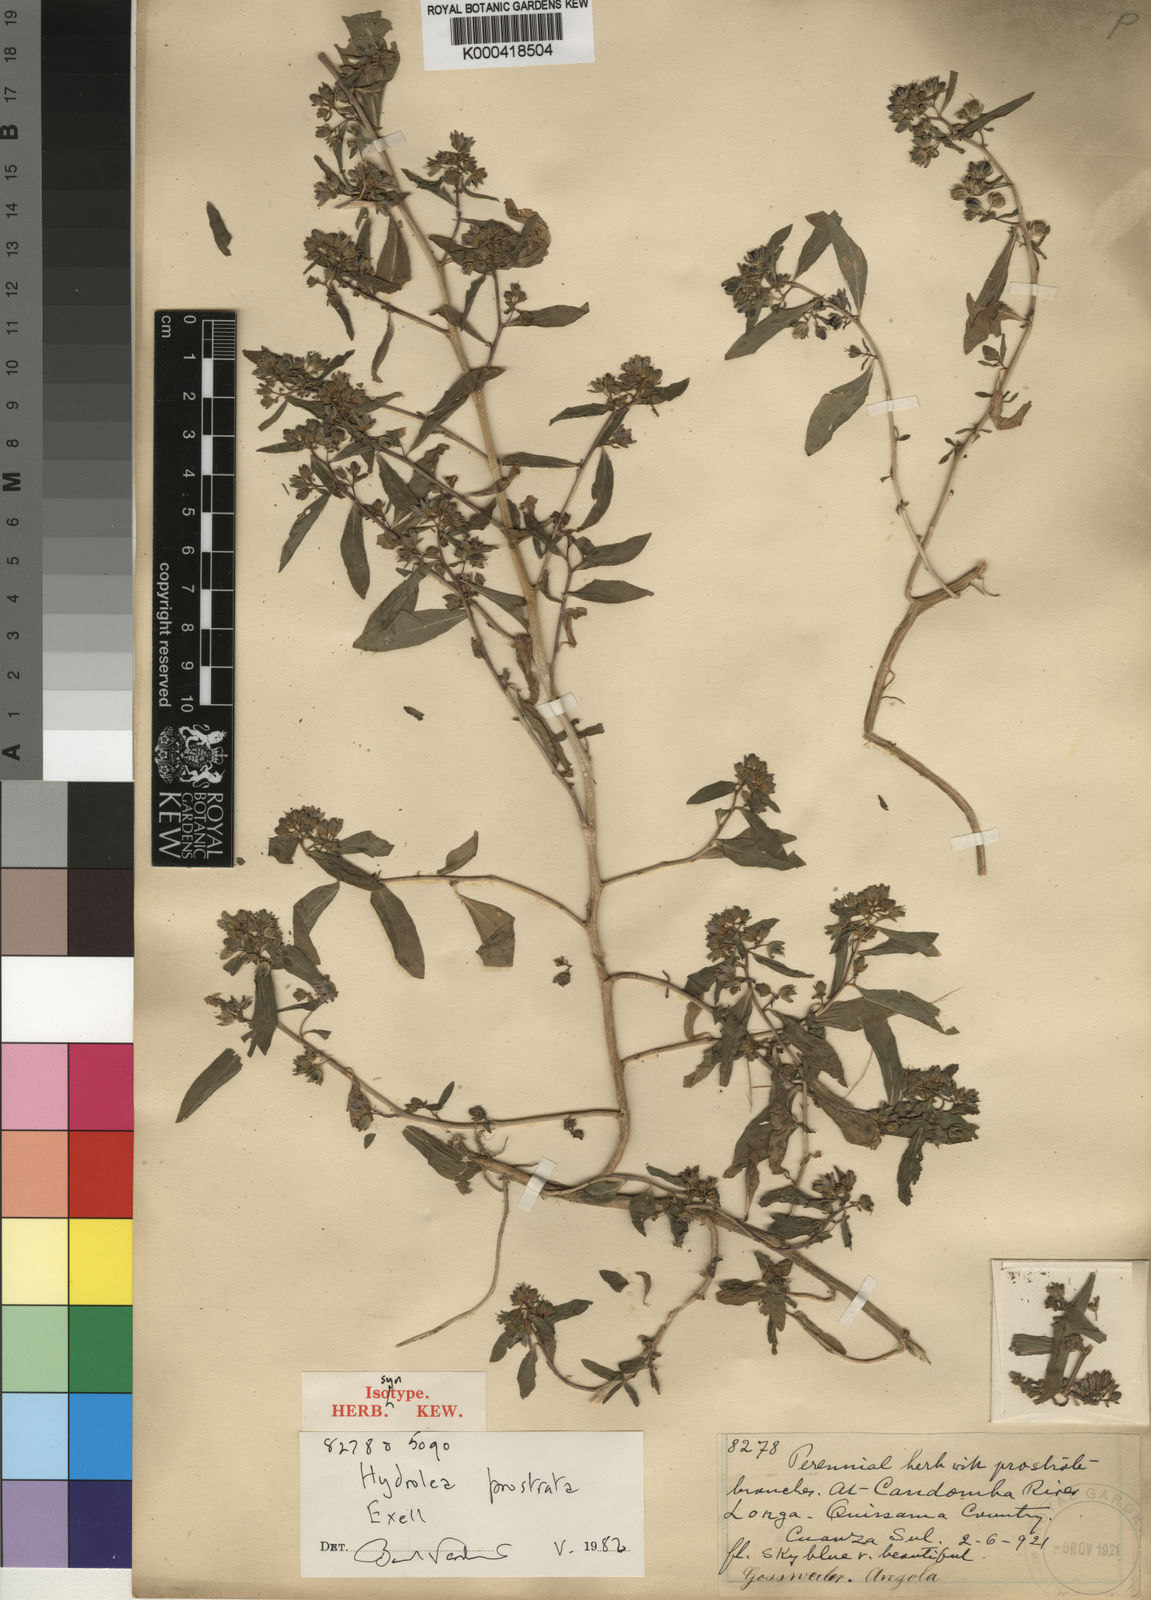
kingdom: Plantae
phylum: Tracheophyta
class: Magnoliopsida
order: Solanales
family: Hydroleaceae
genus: Hydrolea
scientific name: Hydrolea zeylanica
